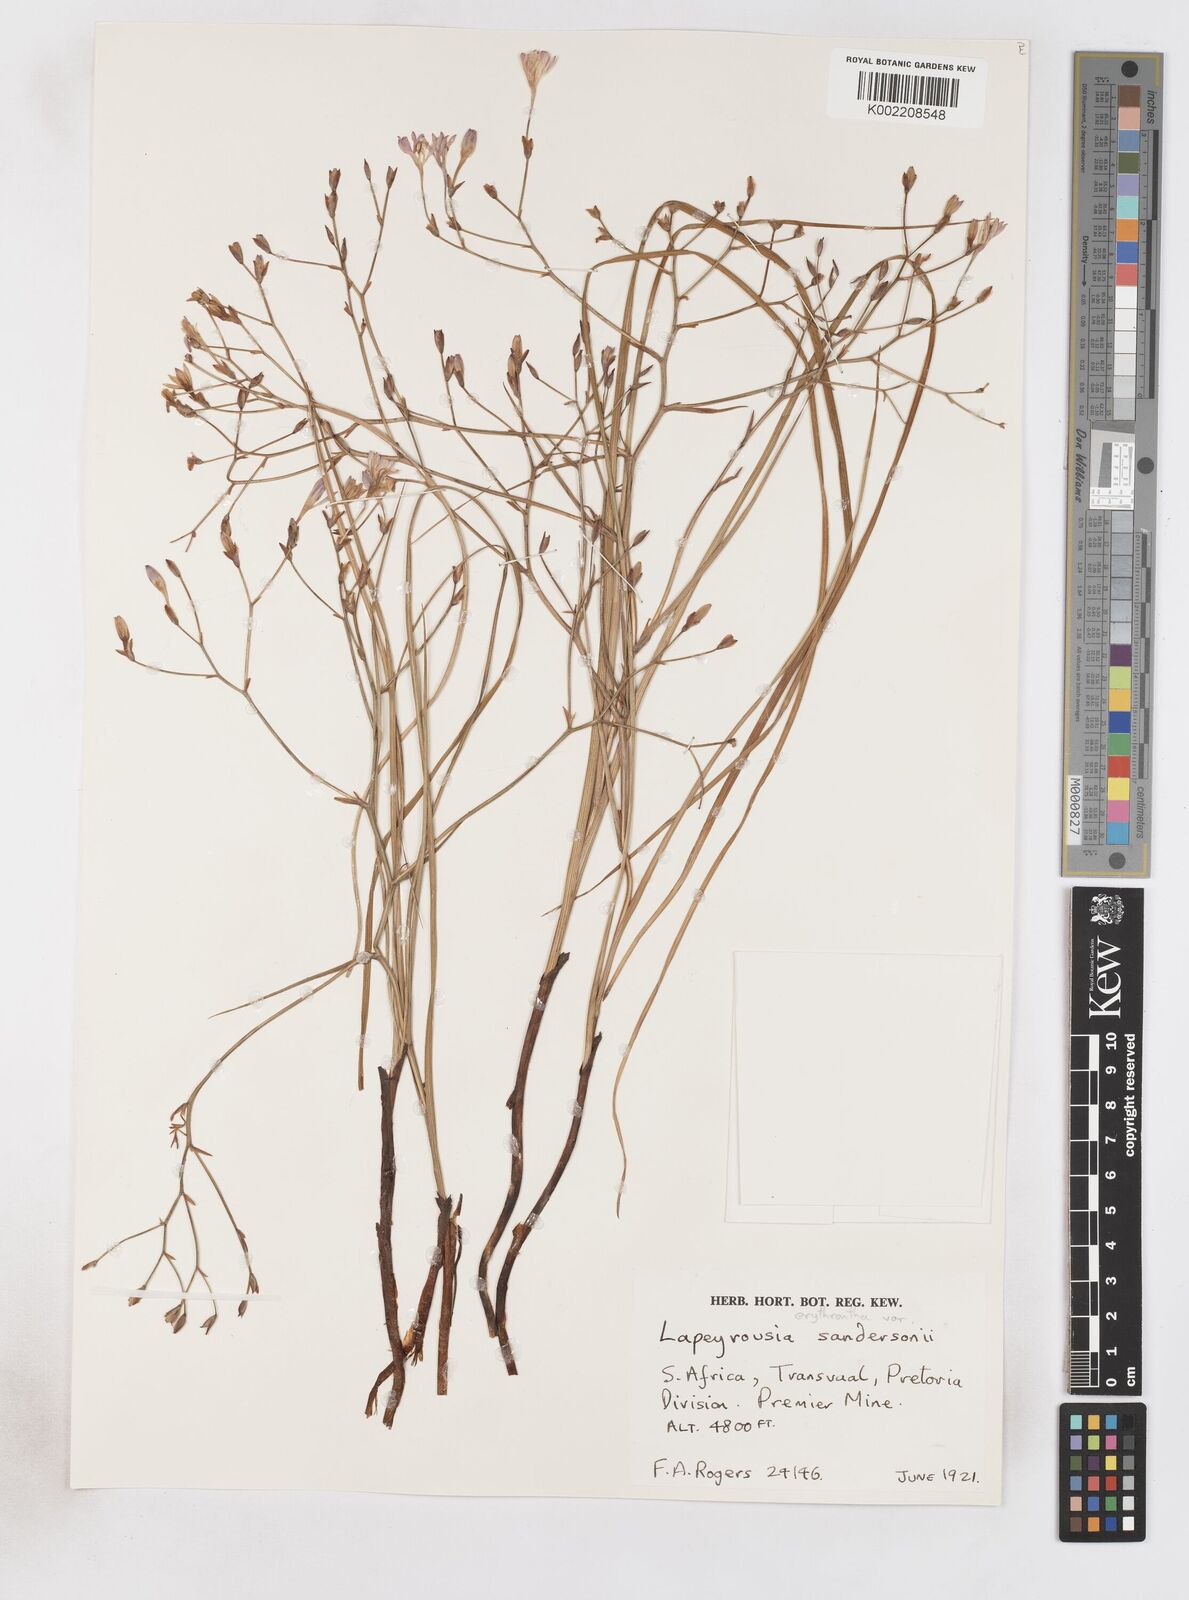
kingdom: Plantae
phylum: Tracheophyta
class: Liliopsida
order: Asparagales
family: Iridaceae
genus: Afrosolen
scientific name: Afrosolen sandersonii
